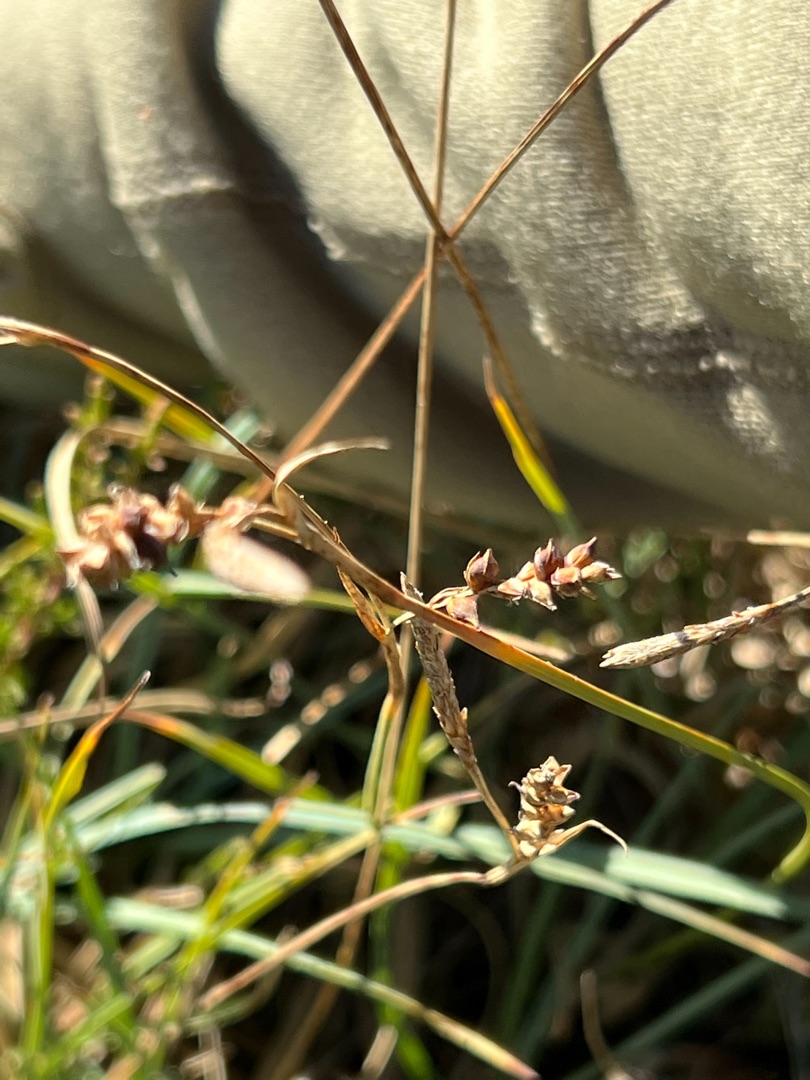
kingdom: Plantae
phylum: Tracheophyta
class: Liliopsida
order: Poales
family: Cyperaceae
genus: Carex
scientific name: Carex panicea
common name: Hirse-star
